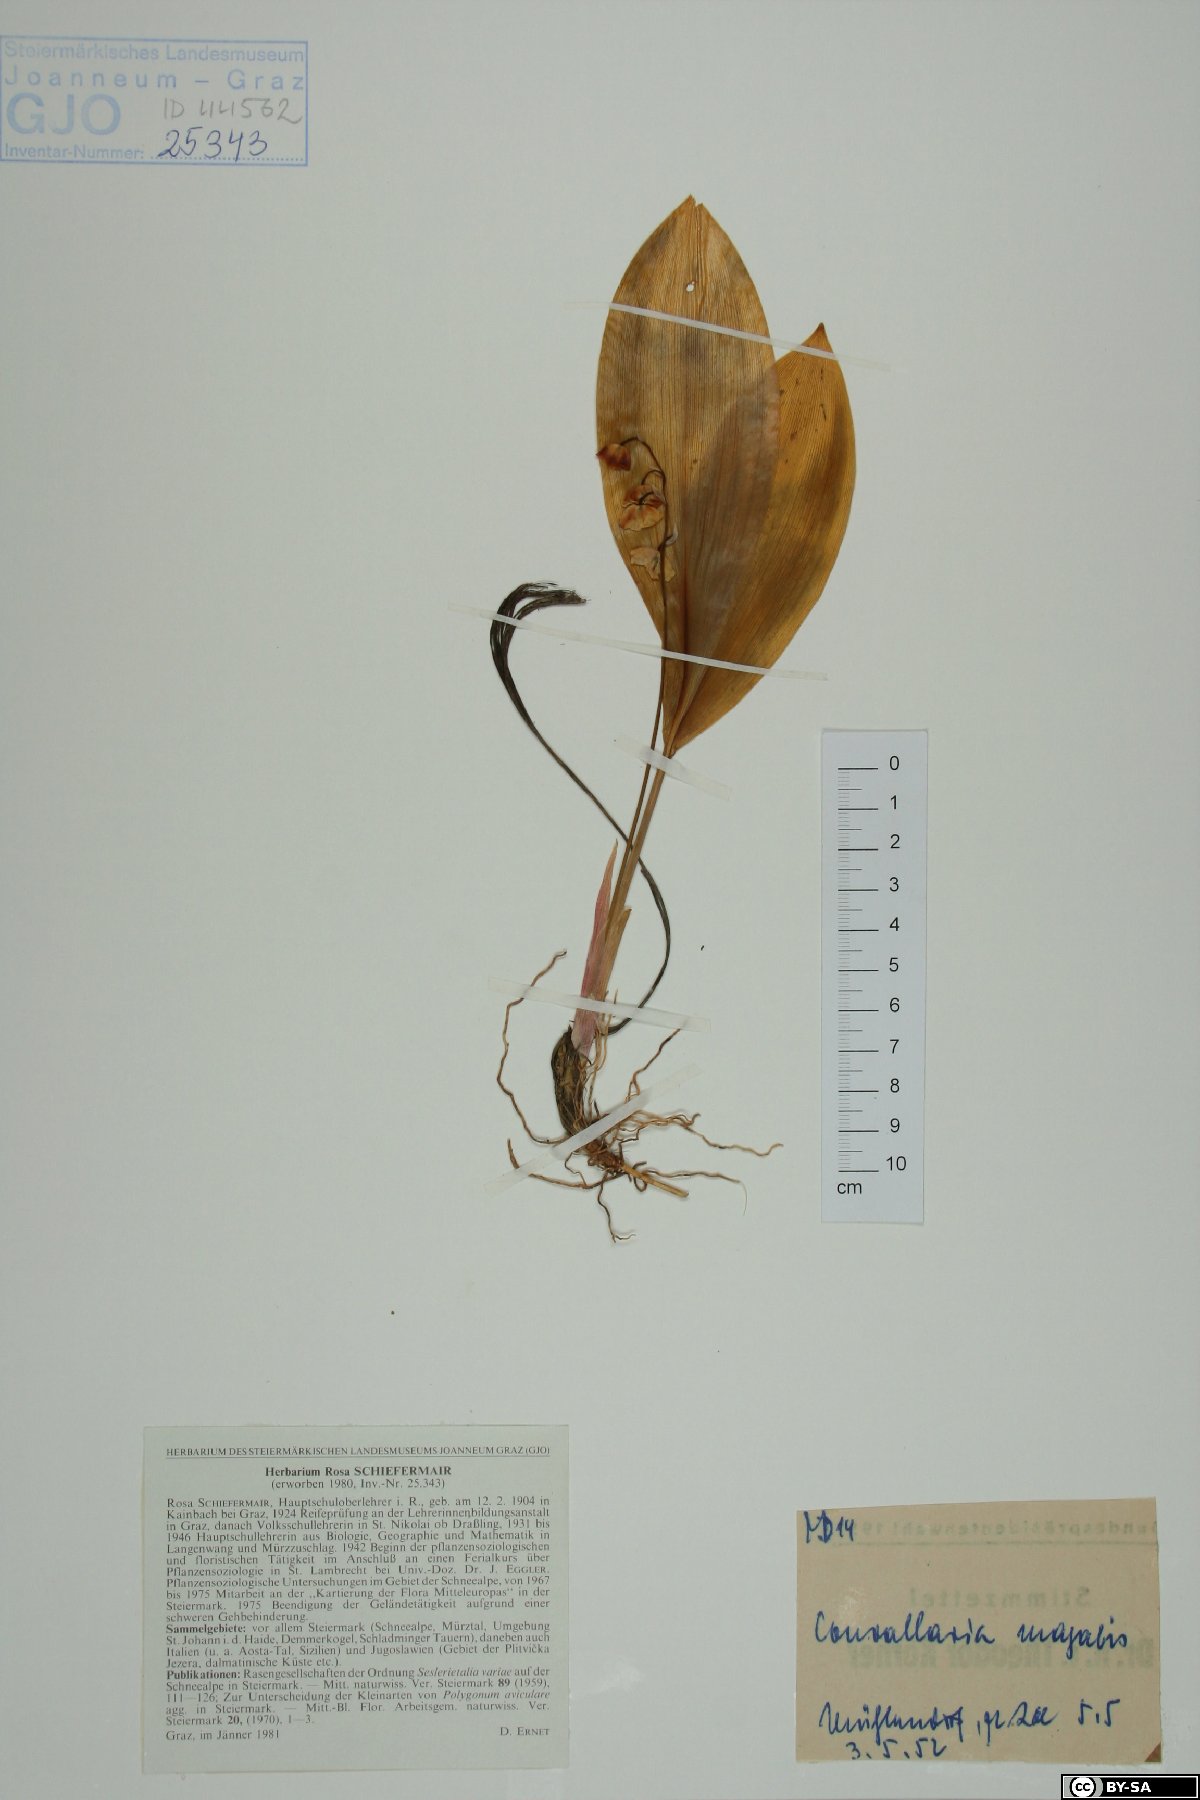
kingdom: Plantae
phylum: Tracheophyta
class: Liliopsida
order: Asparagales
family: Asparagaceae
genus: Convallaria
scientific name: Convallaria majalis
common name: Lily-of-the-valley
